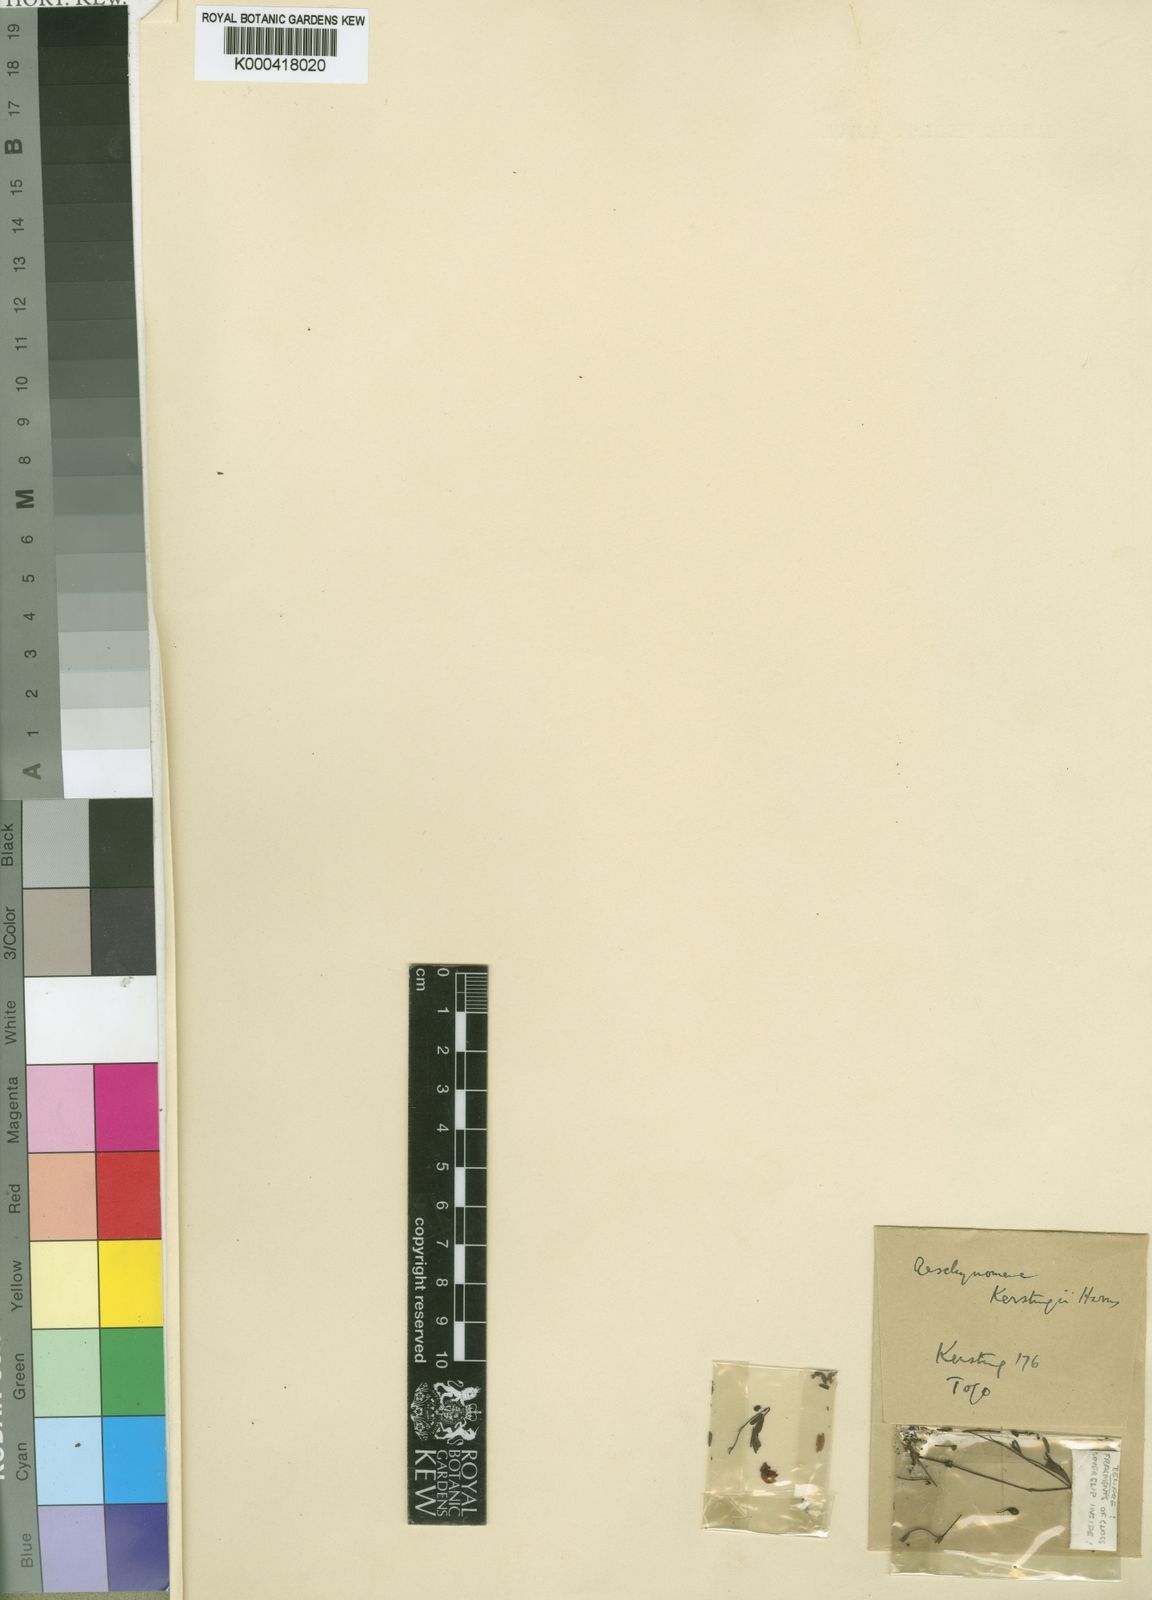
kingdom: Plantae
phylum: Tracheophyta
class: Magnoliopsida
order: Fabales
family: Fabaceae
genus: Aeschynomene
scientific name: Aeschynomene kerstingii
